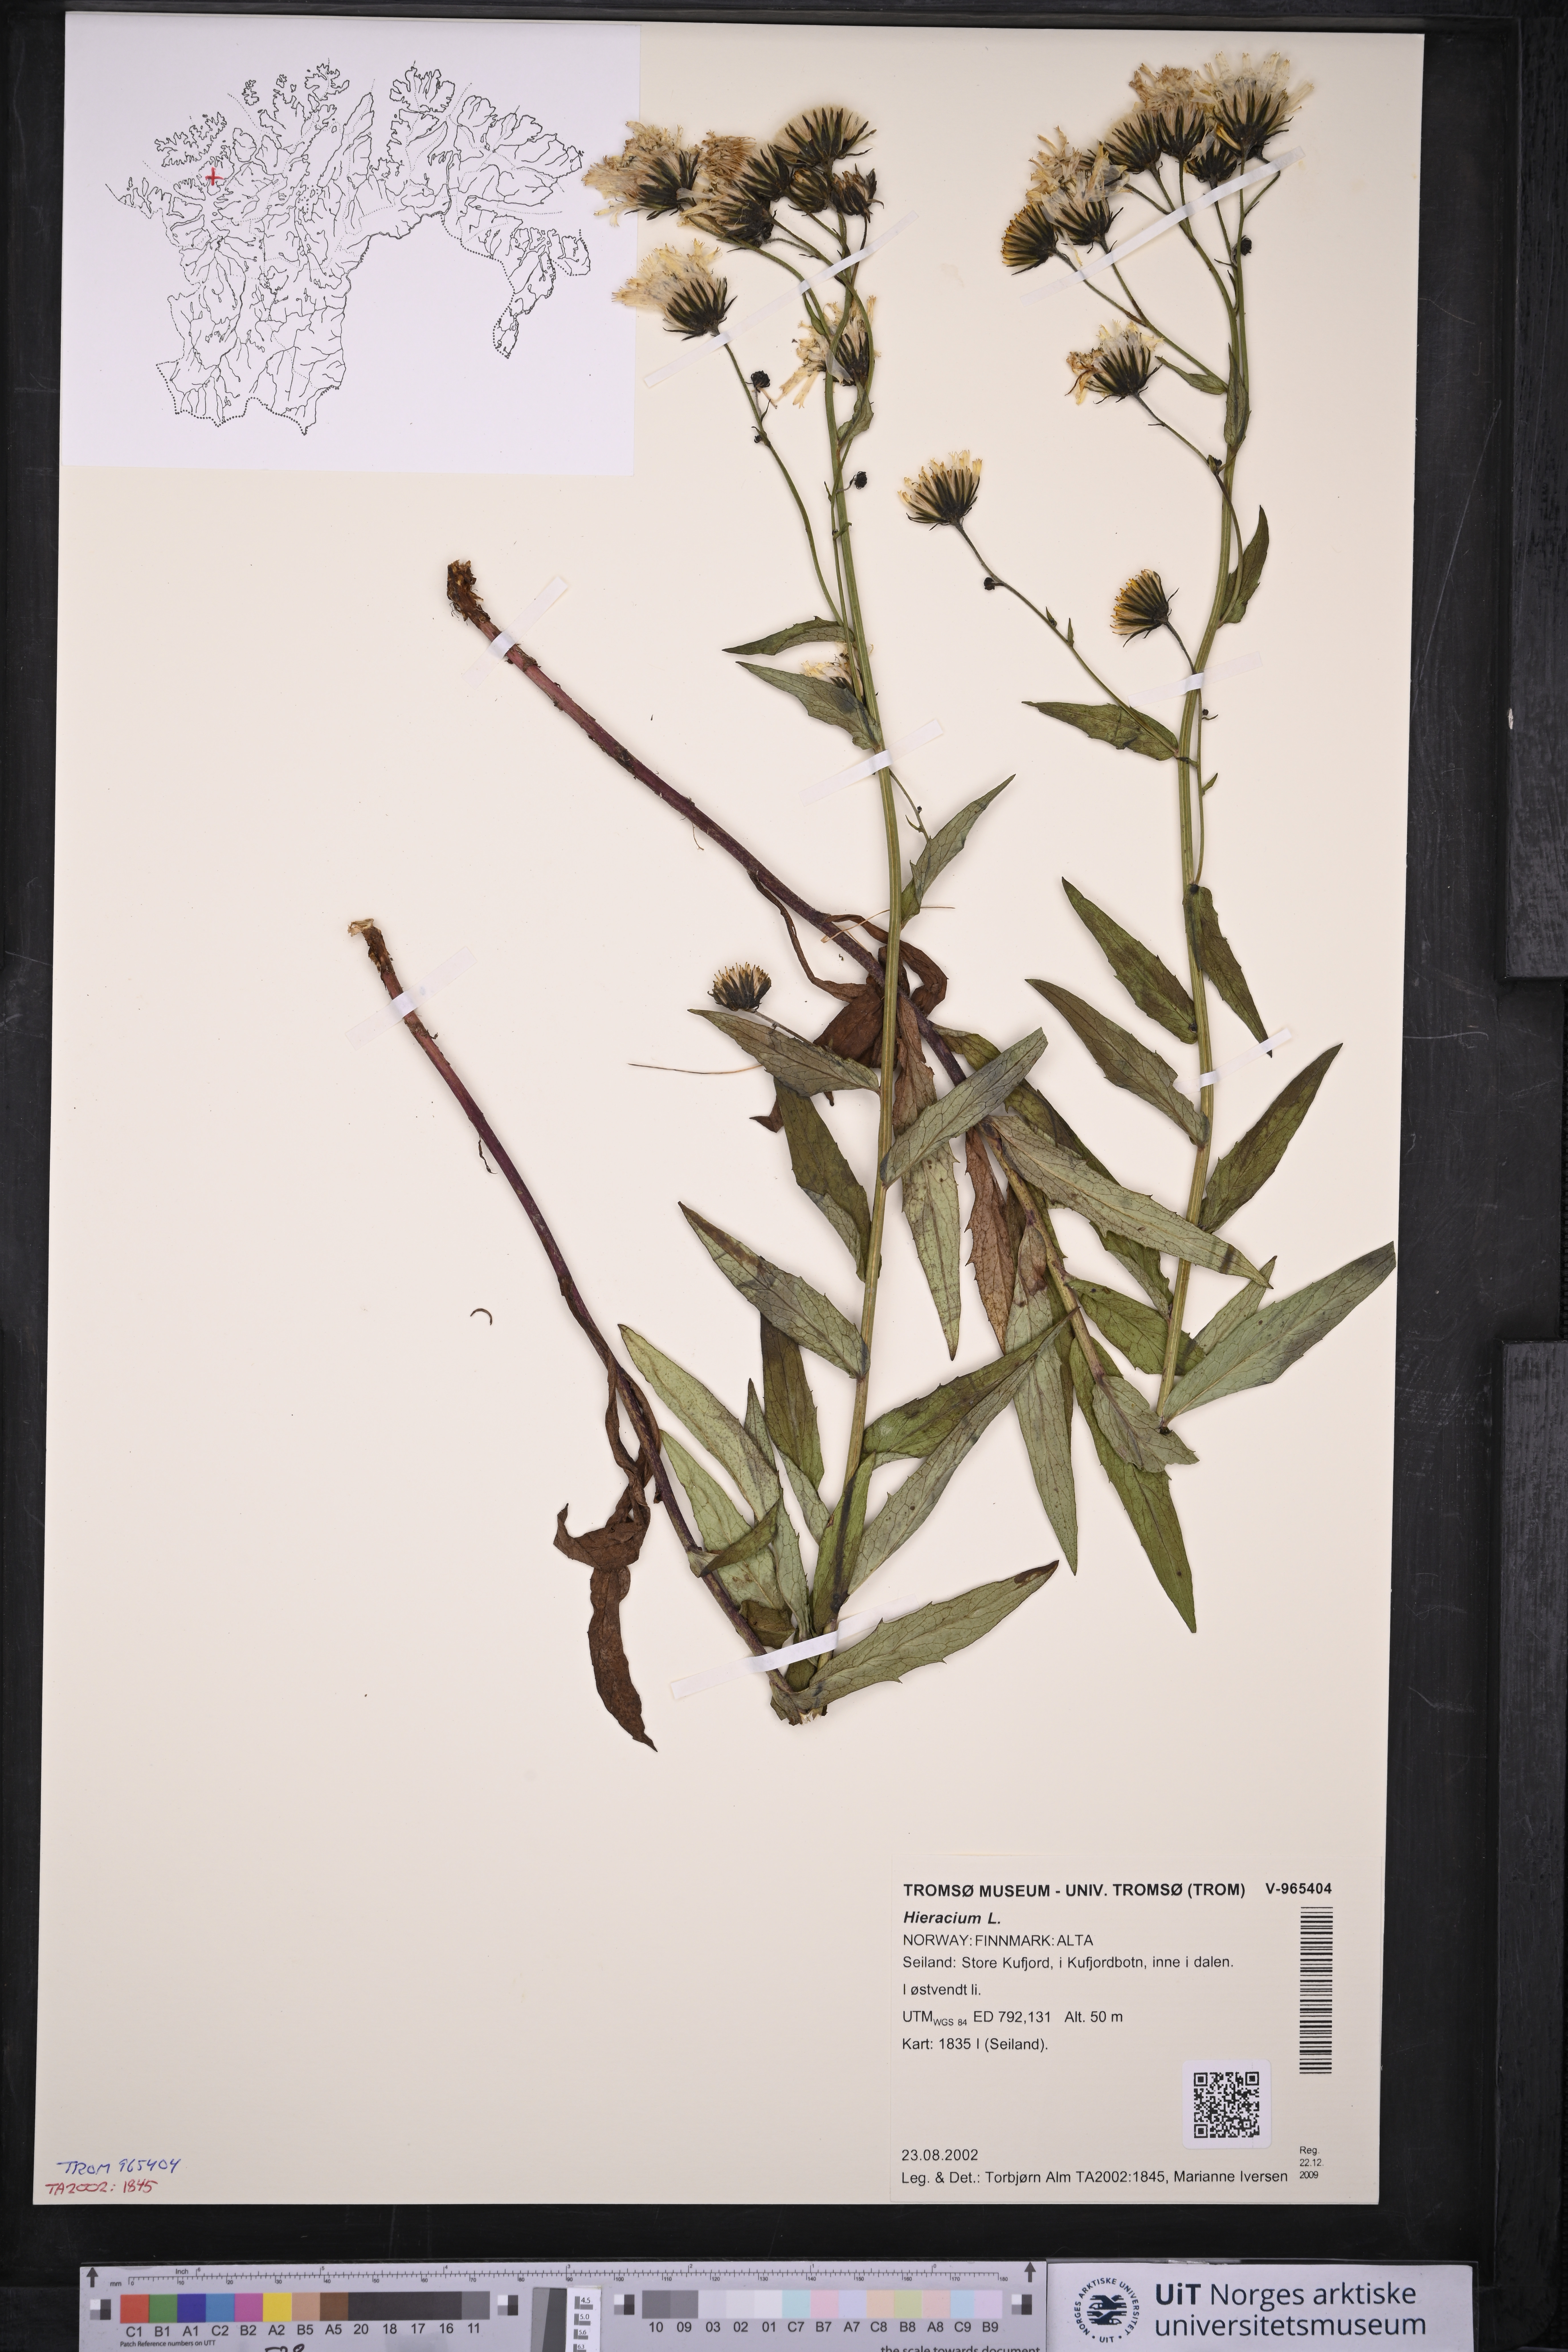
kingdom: Plantae
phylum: Tracheophyta
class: Magnoliopsida
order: Asterales
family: Asteraceae
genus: Hieracium
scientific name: Hieracium
